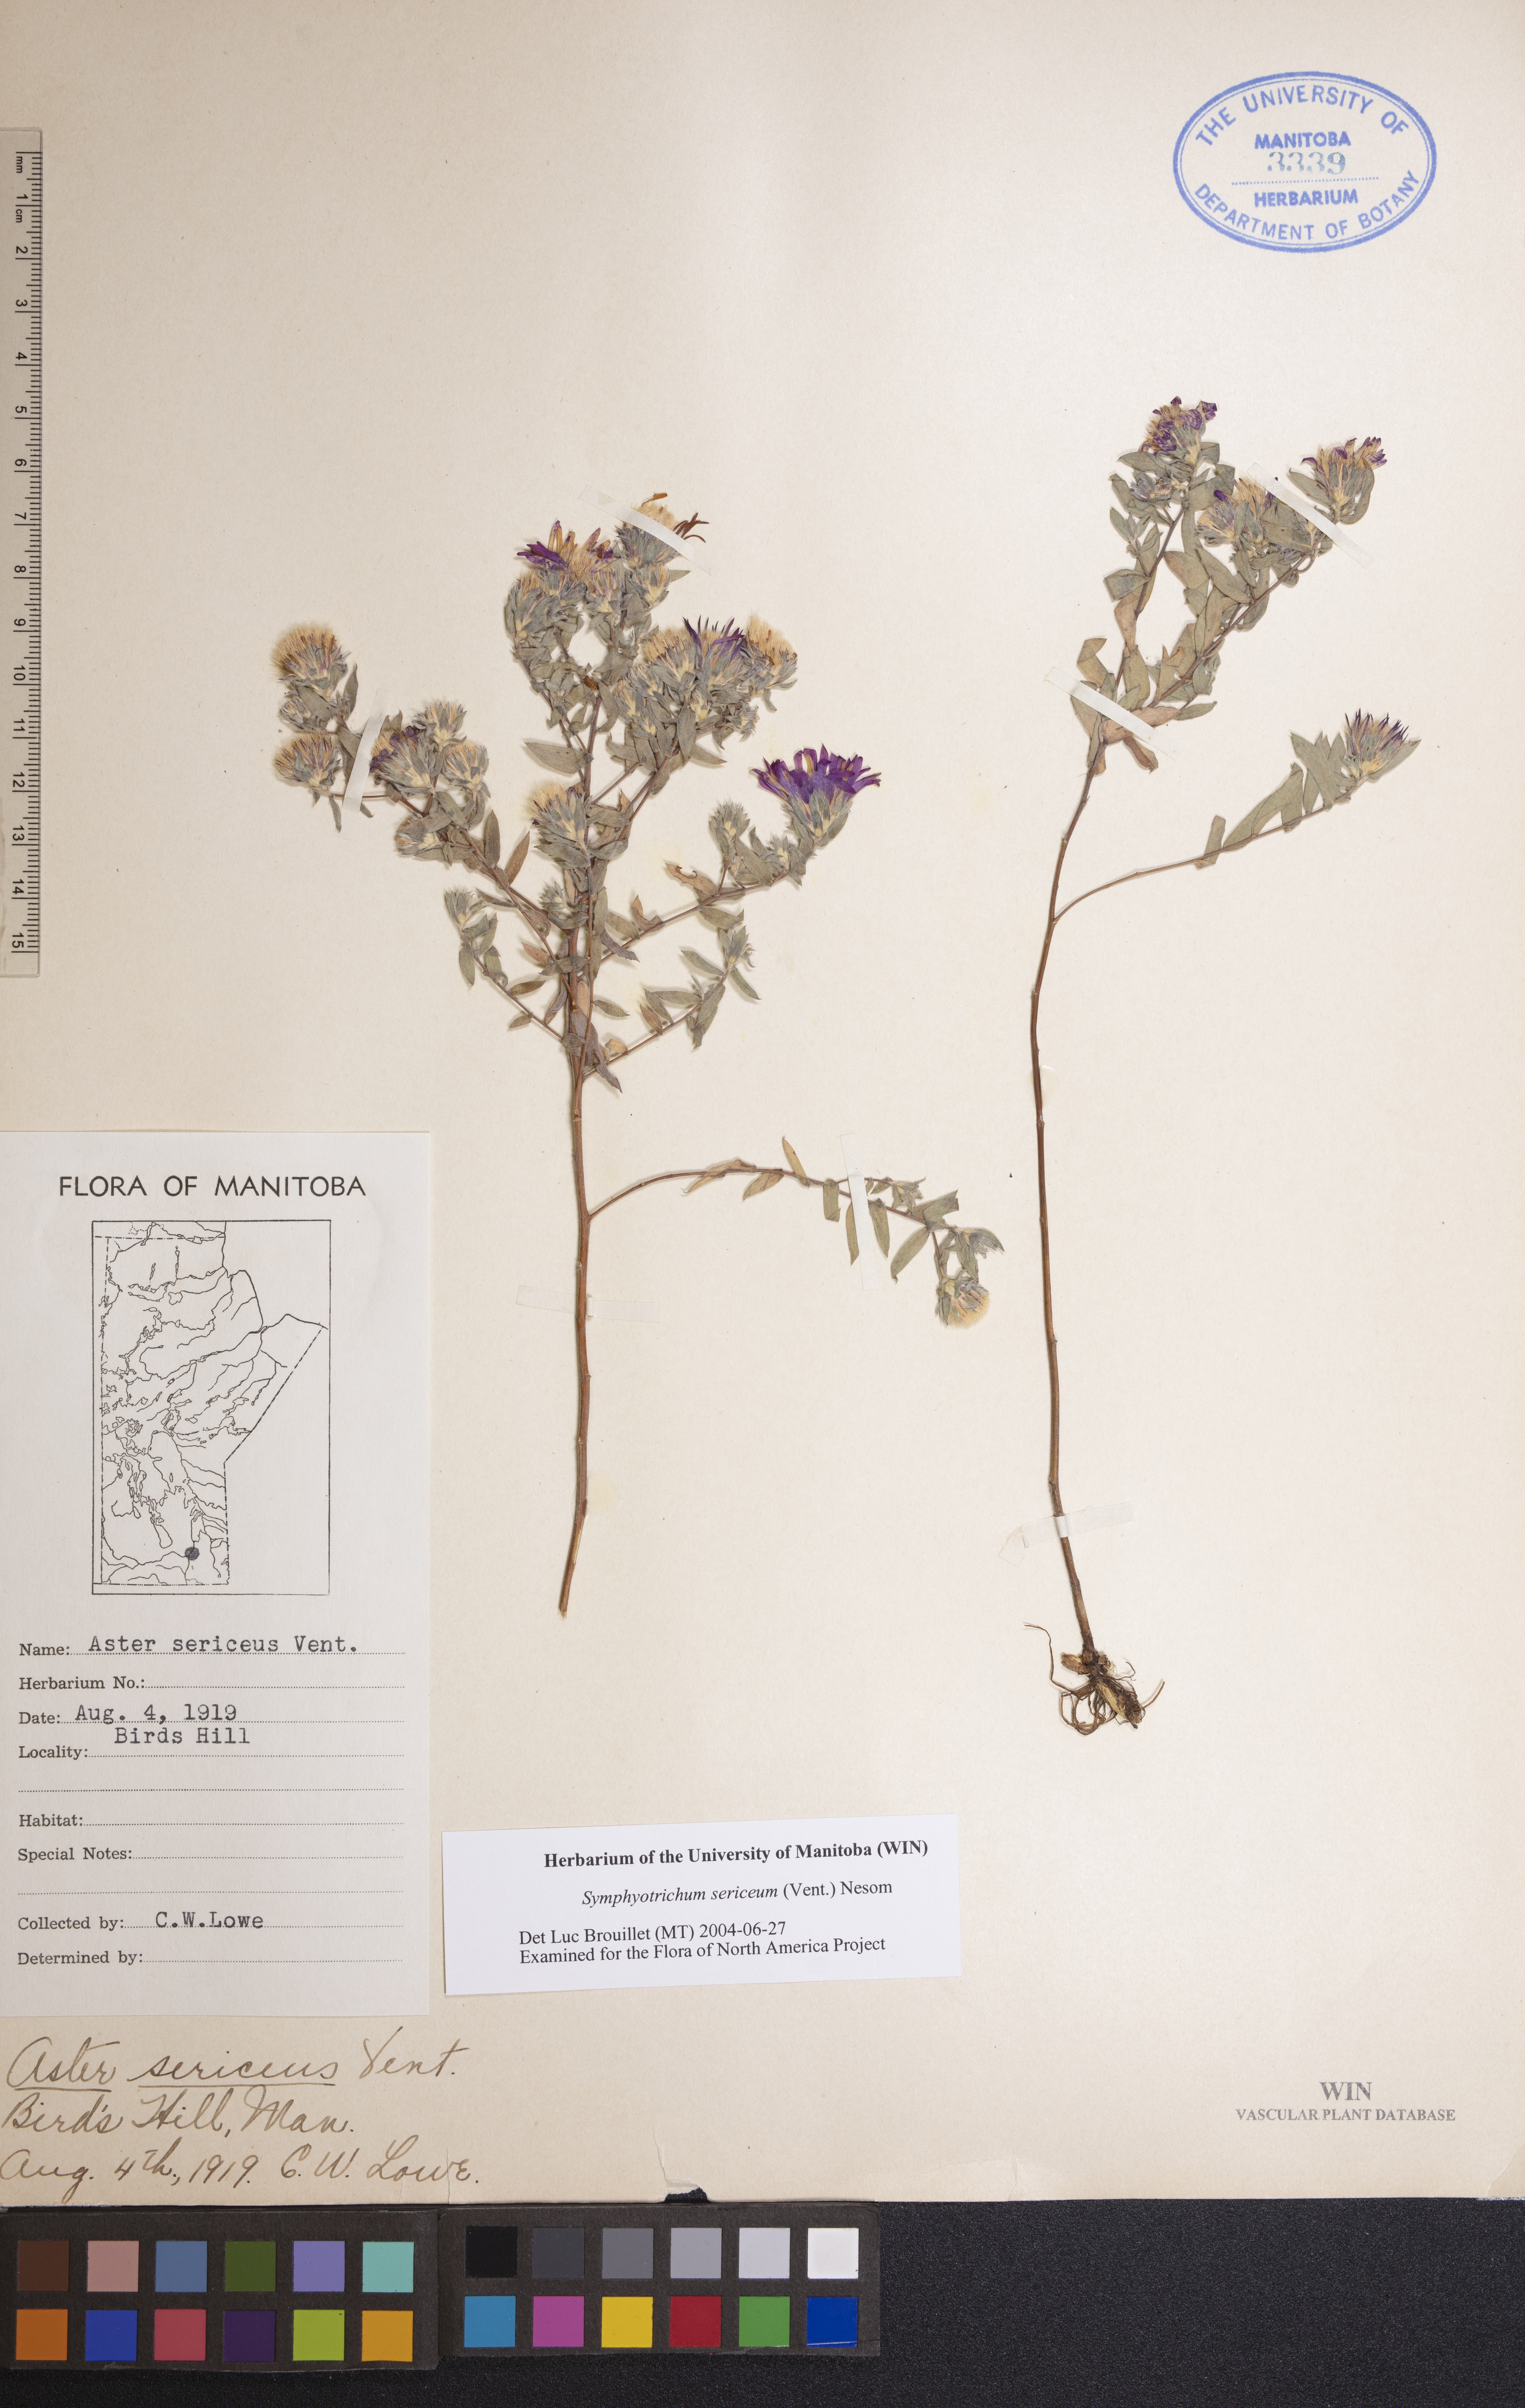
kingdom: Plantae
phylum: Tracheophyta
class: Magnoliopsida
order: Asterales
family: Asteraceae
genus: Symphyotrichum
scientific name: Symphyotrichum sericeum
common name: Silky aster
